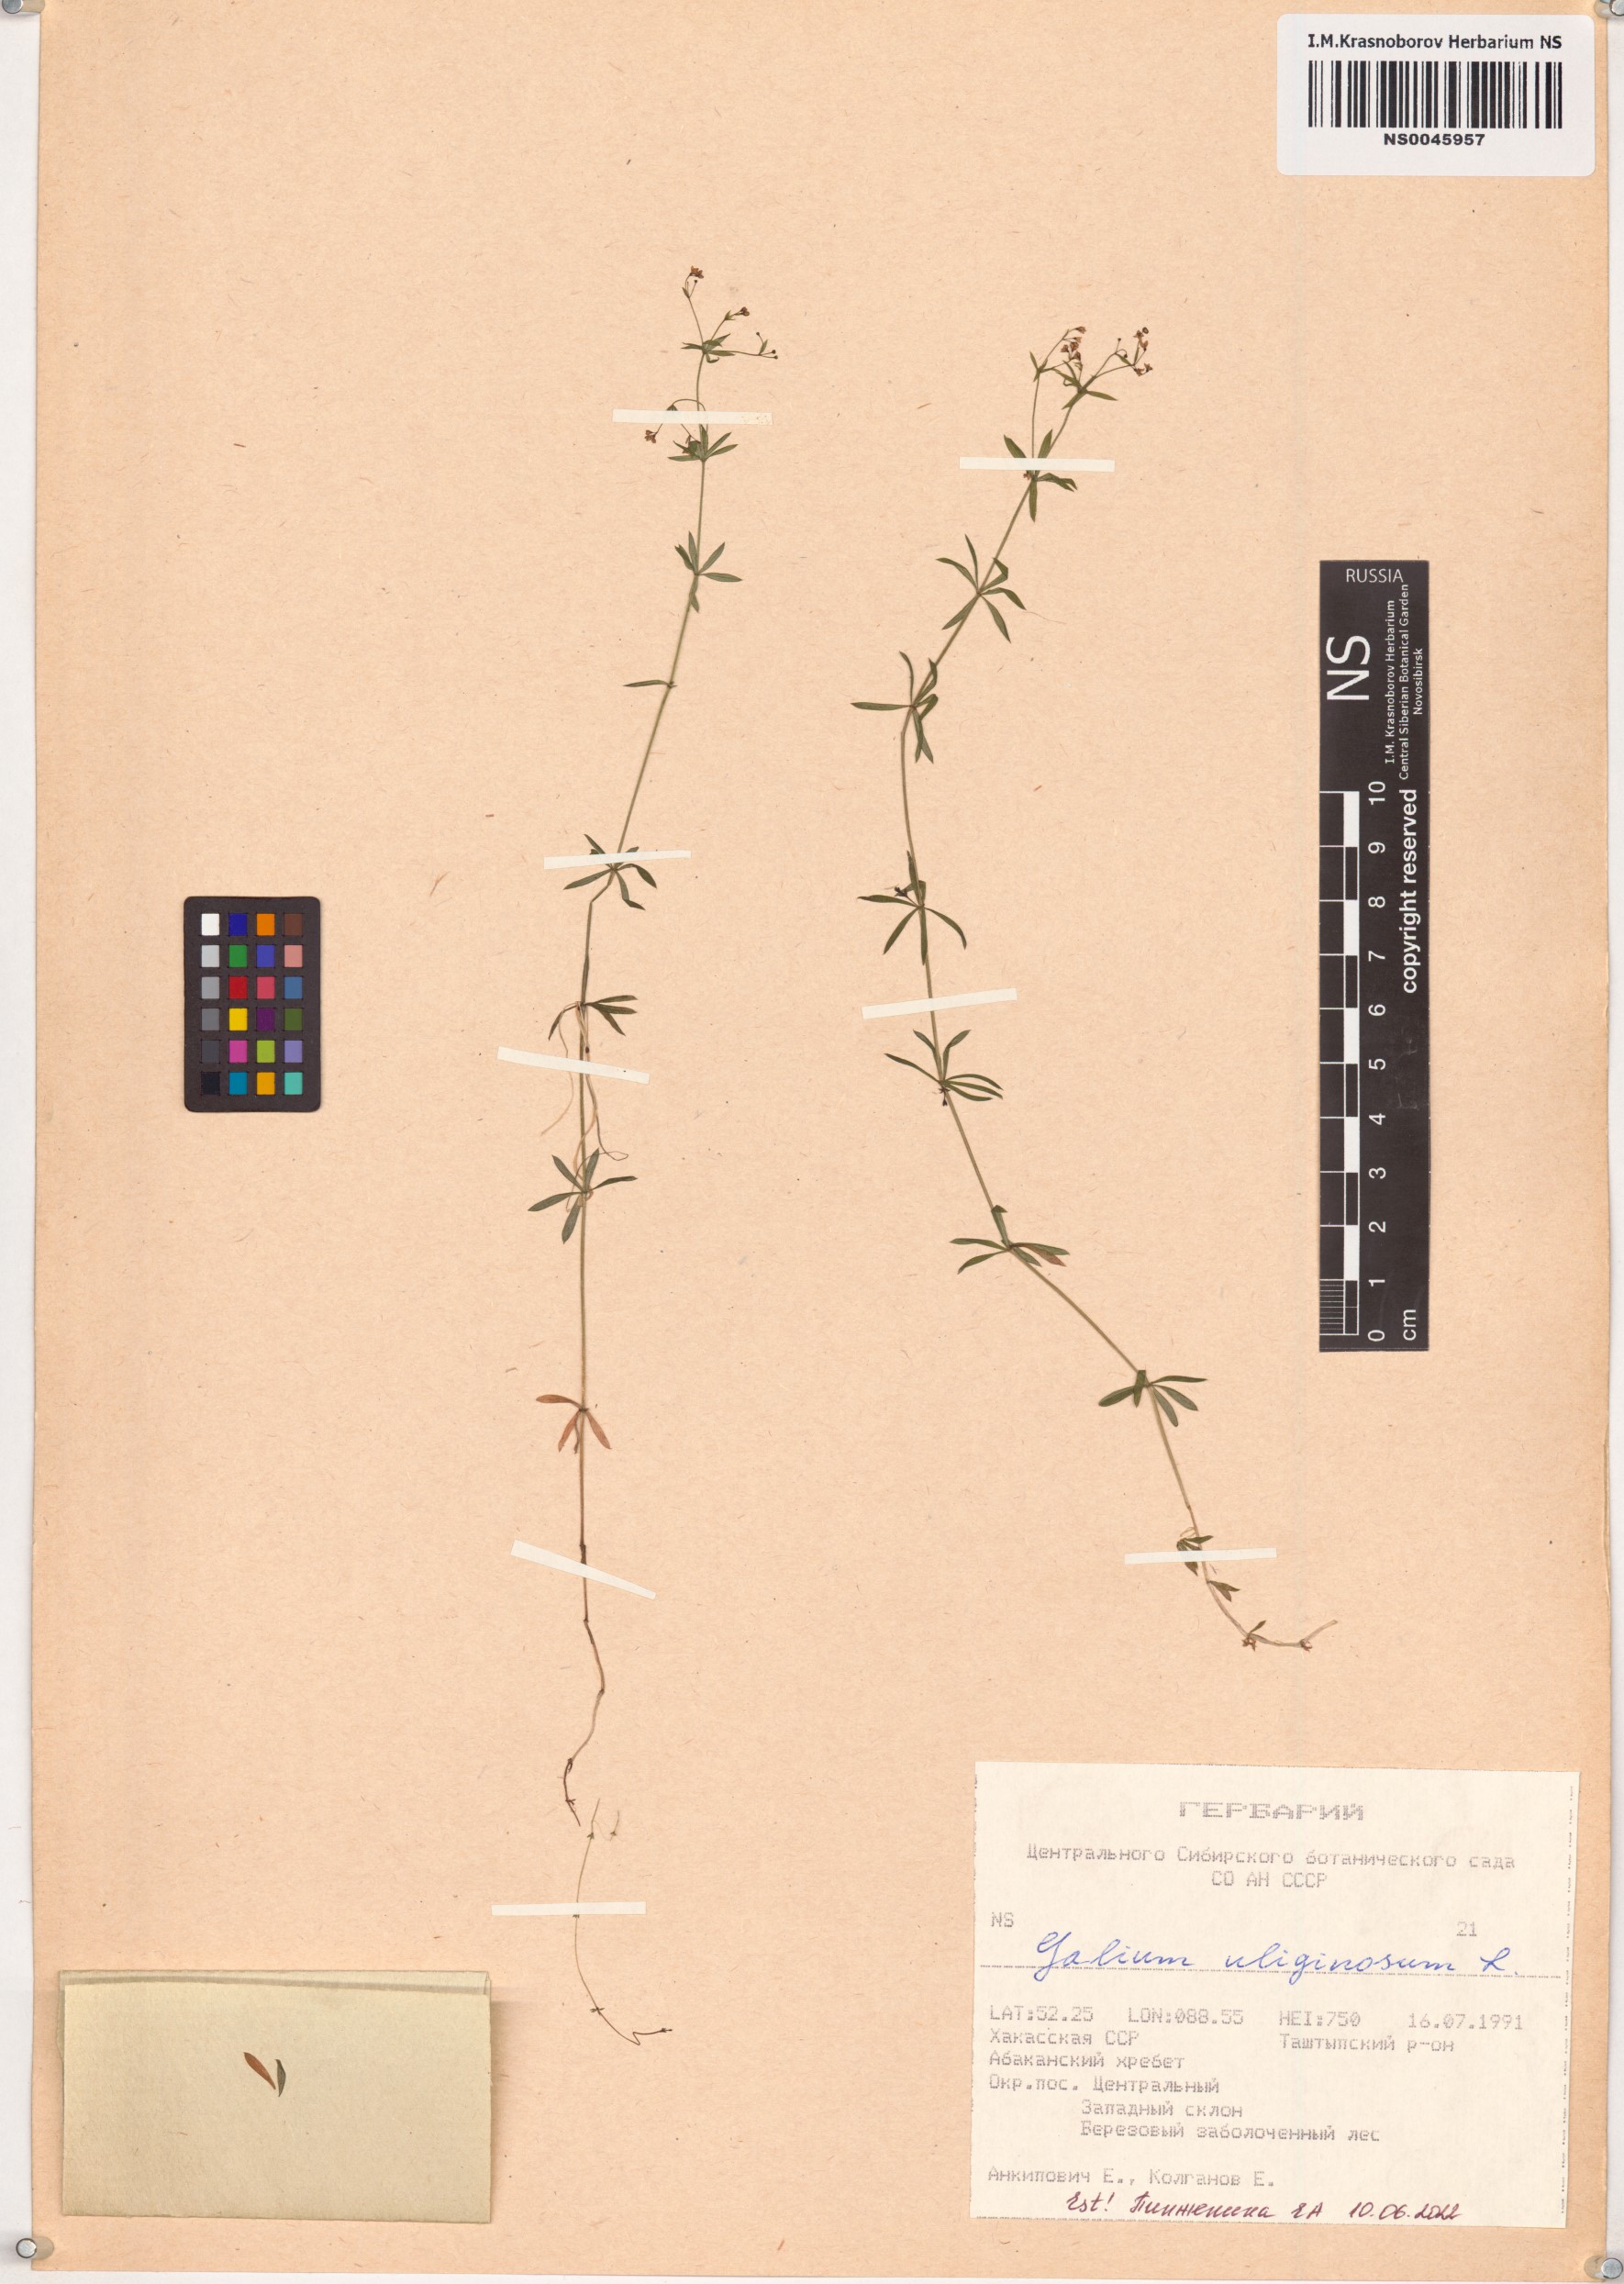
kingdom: Plantae
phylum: Tracheophyta
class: Magnoliopsida
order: Gentianales
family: Rubiaceae
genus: Galium
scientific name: Galium uliginosum
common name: Fen bedstraw
